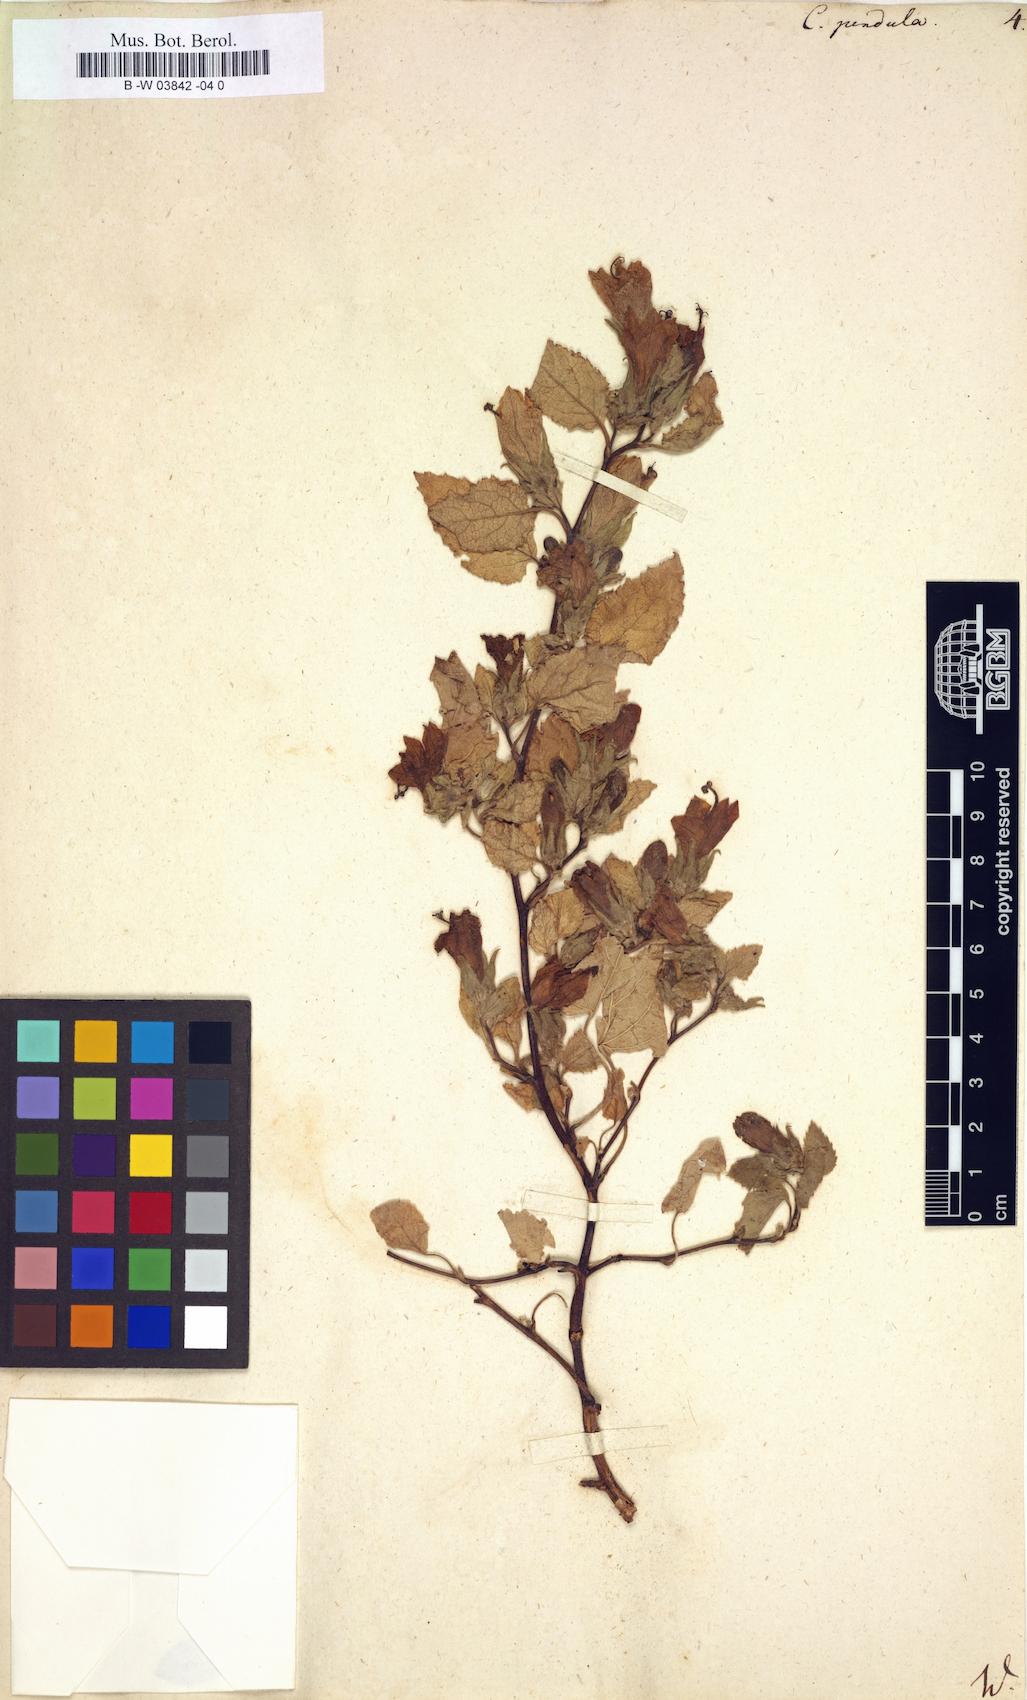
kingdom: Plantae
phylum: Tracheophyta
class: Magnoliopsida
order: Asterales
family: Campanulaceae
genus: Campanula
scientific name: Campanula pendula
